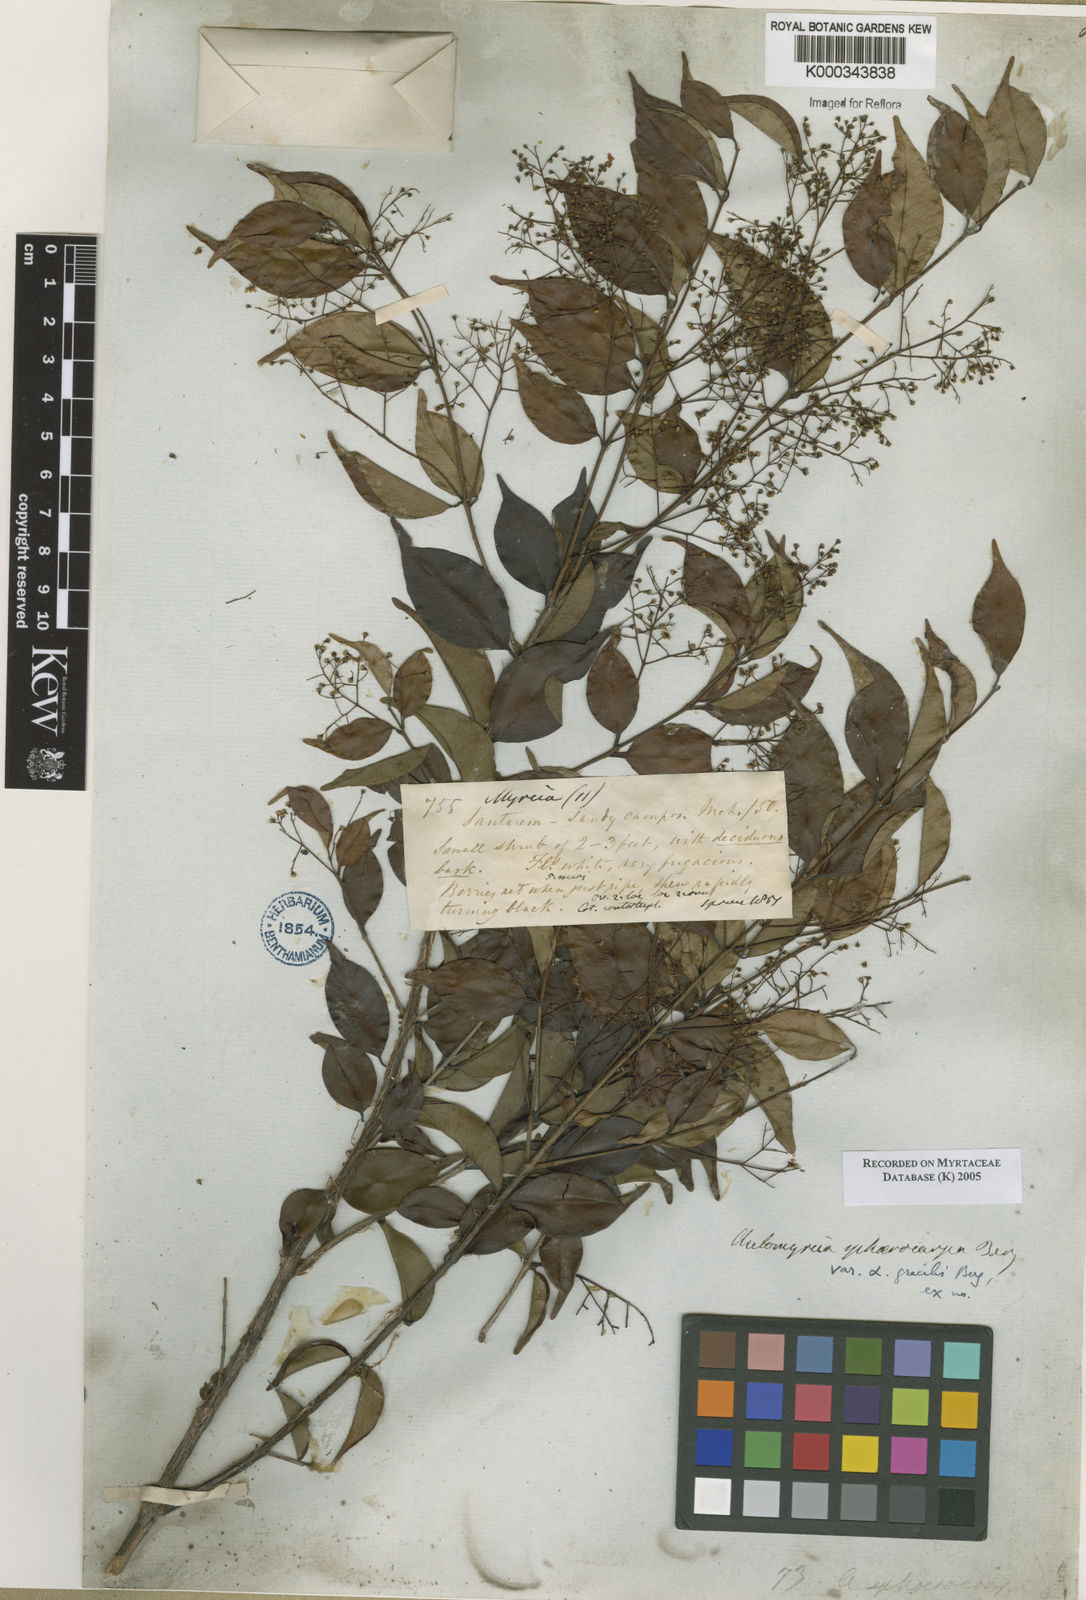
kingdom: Plantae
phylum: Tracheophyta
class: Magnoliopsida
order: Myrtales
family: Myrtaceae
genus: Myrcia
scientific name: Myrcia multiflora
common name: Pedra hume
